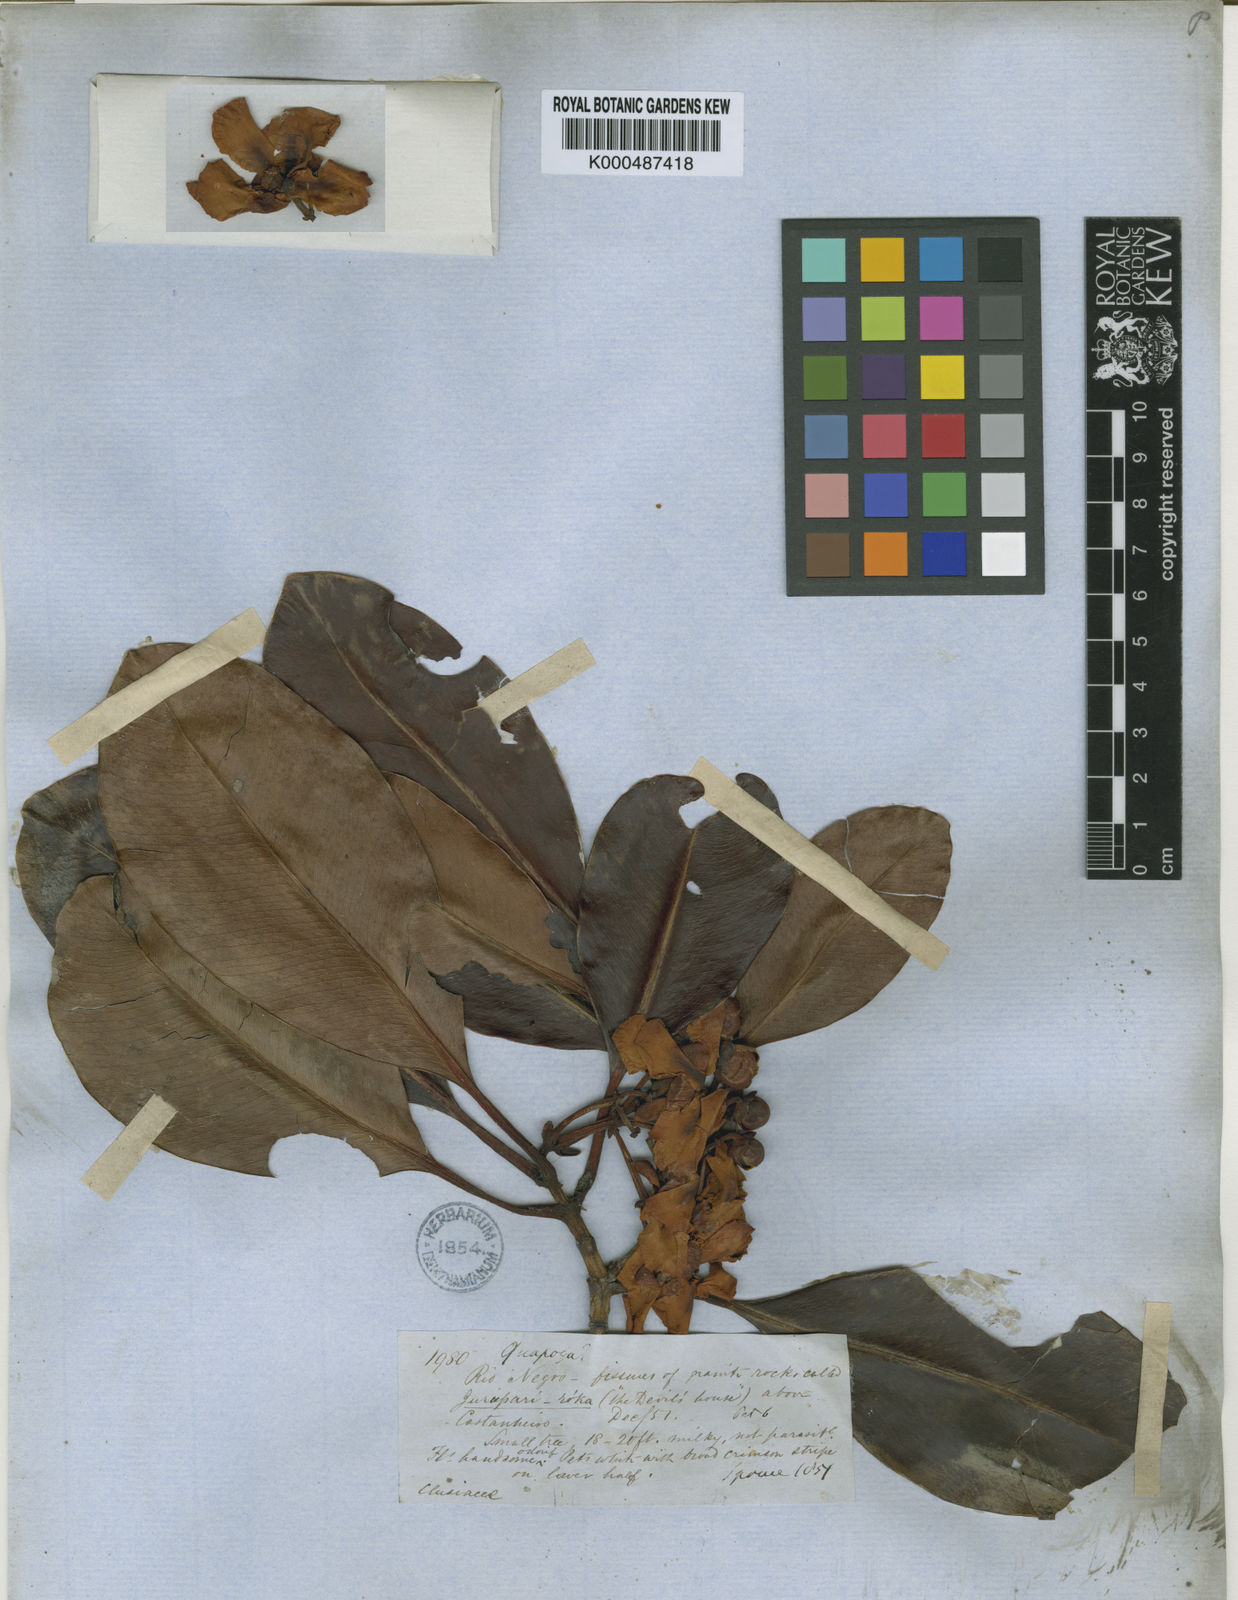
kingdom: Plantae
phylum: Tracheophyta
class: Magnoliopsida
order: Malpighiales
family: Clusiaceae
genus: Clusia
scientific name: Clusia columnaris
